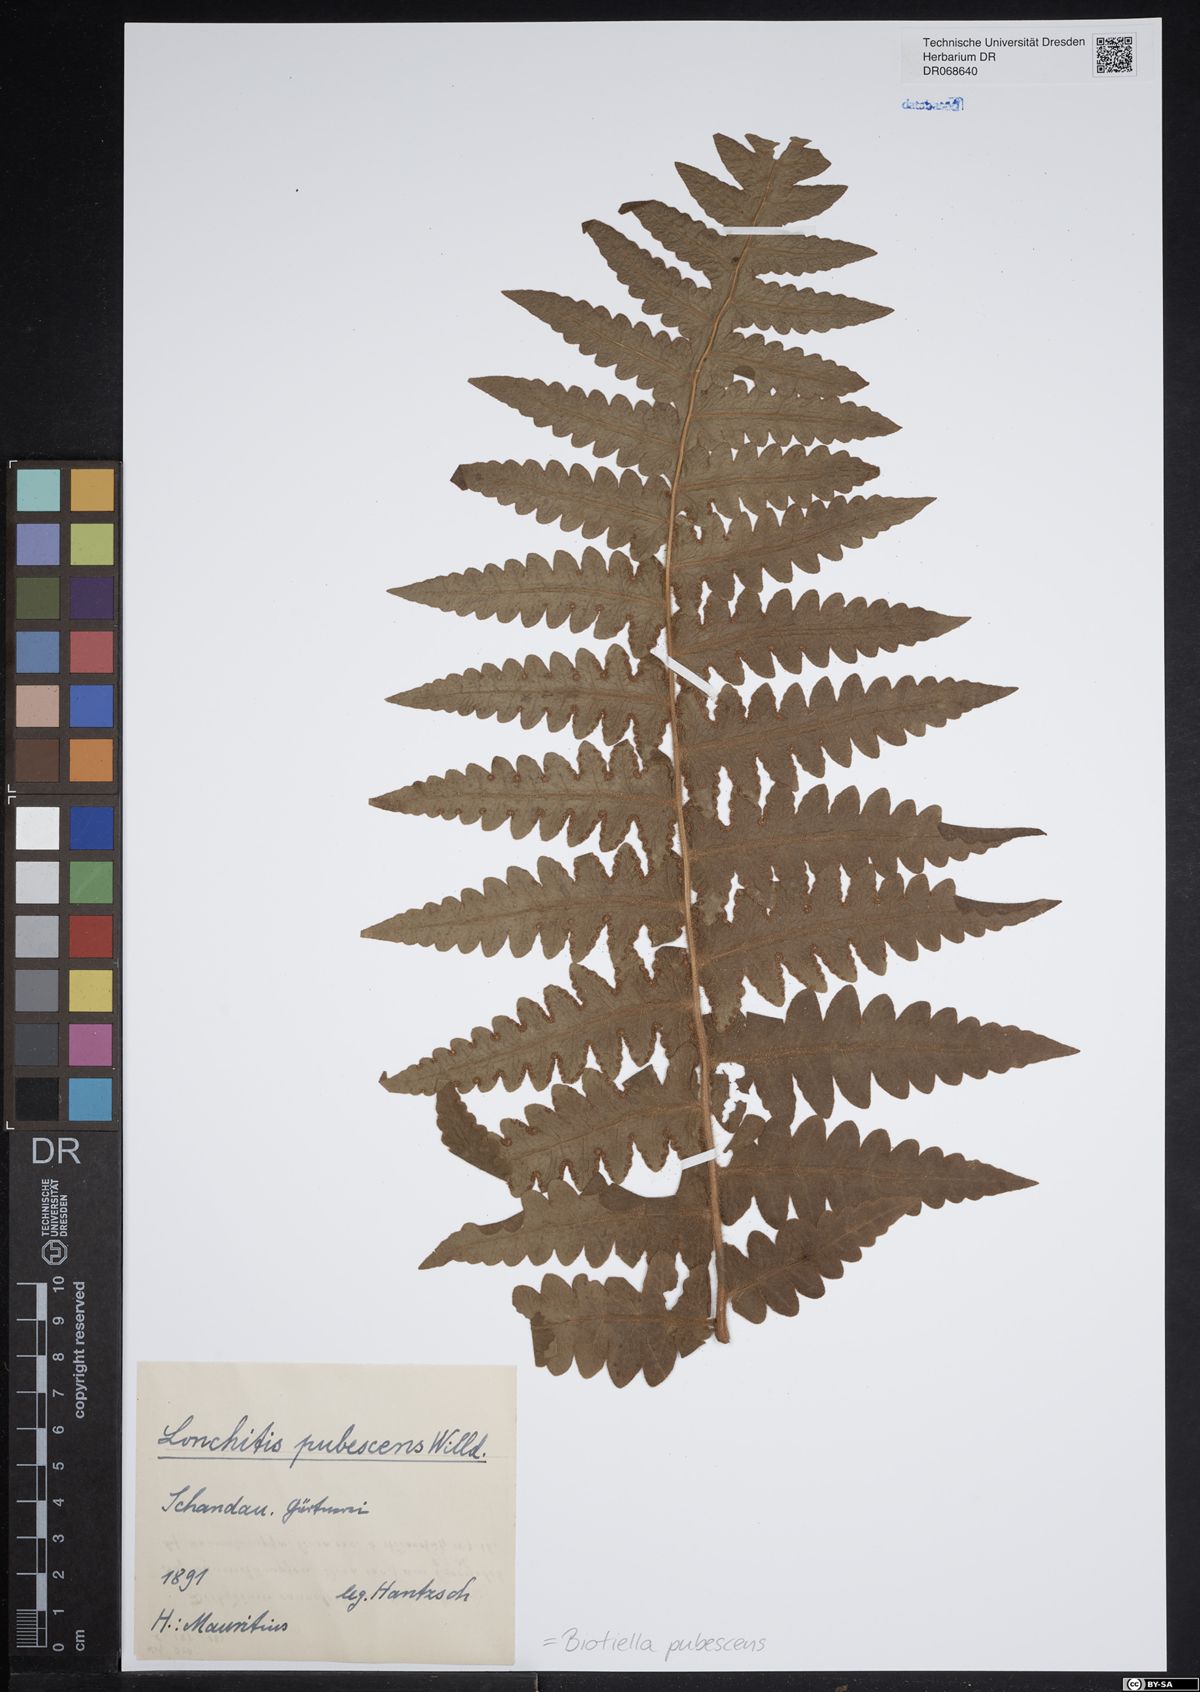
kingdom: Plantae
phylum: Tracheophyta
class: Polypodiopsida
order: Polypodiales
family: Dennstaedtiaceae
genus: Blotiella
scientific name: Blotiella pubescens
